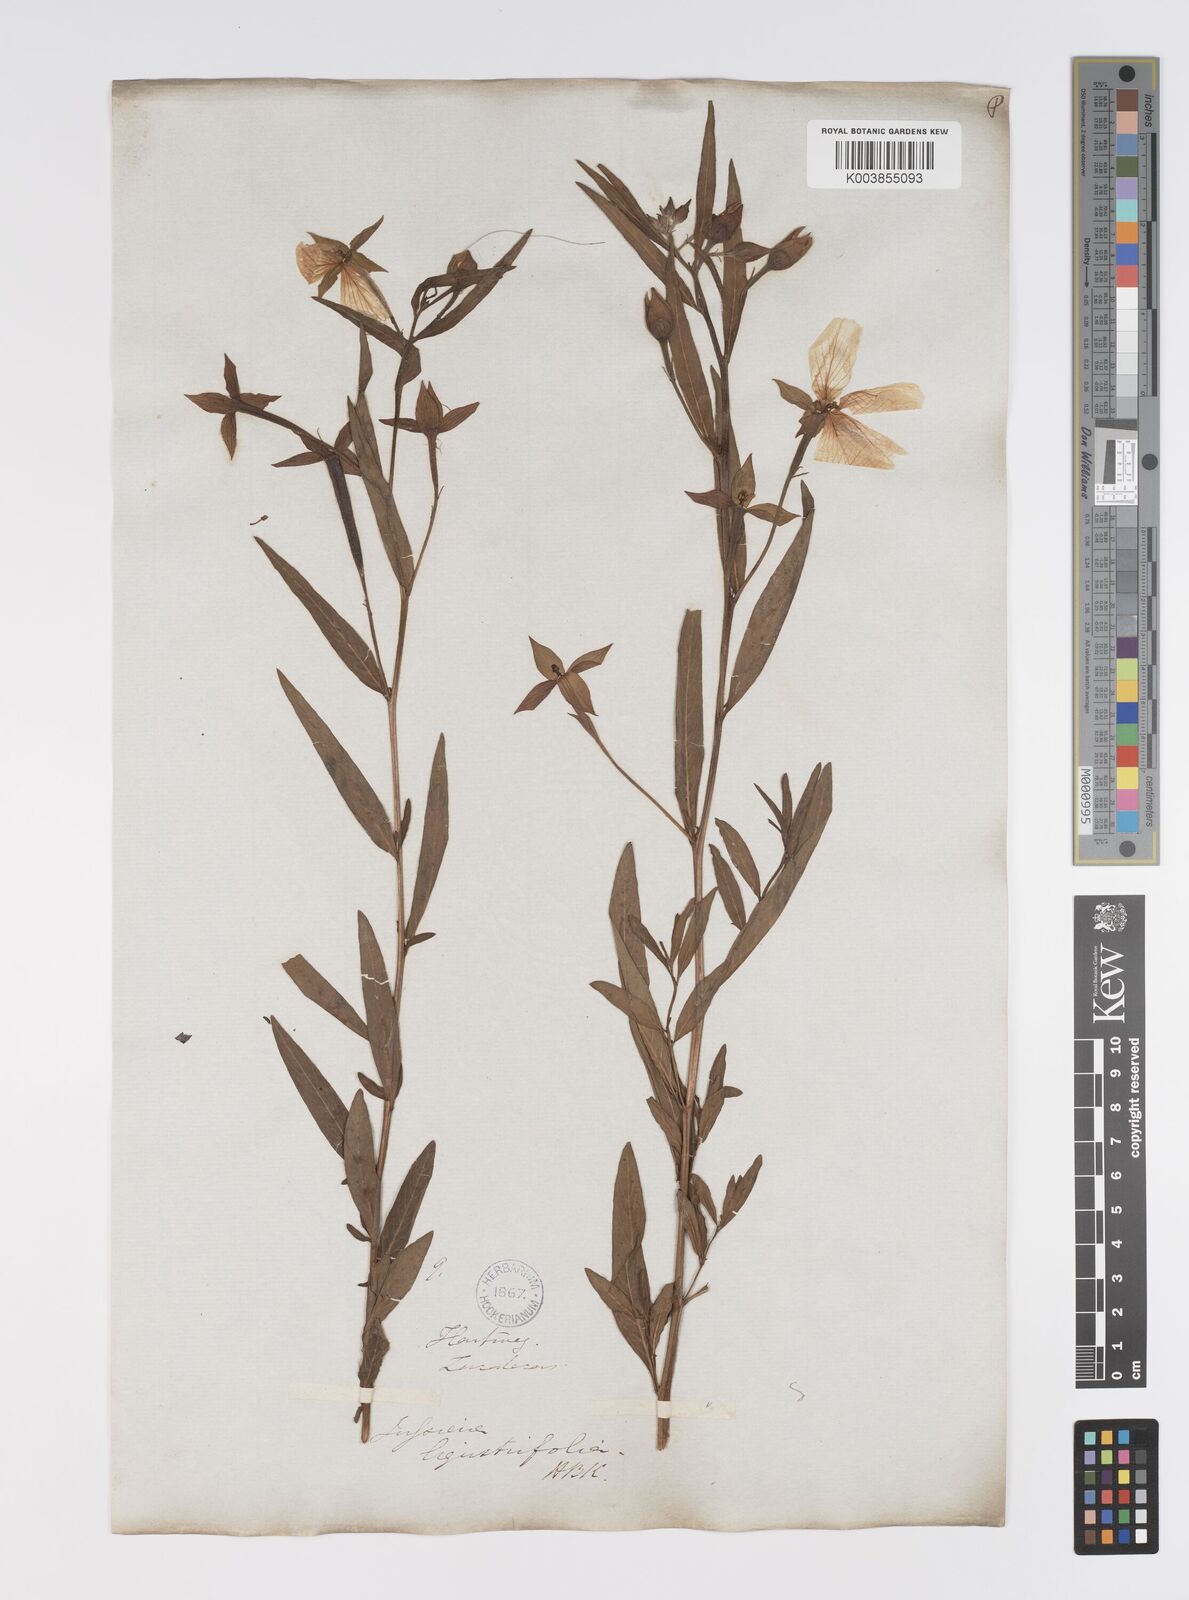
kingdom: Plantae
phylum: Tracheophyta
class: Magnoliopsida
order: Myrtales
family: Onagraceae
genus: Ludwigia
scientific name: Ludwigia octovalvis
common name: Water-primrose
